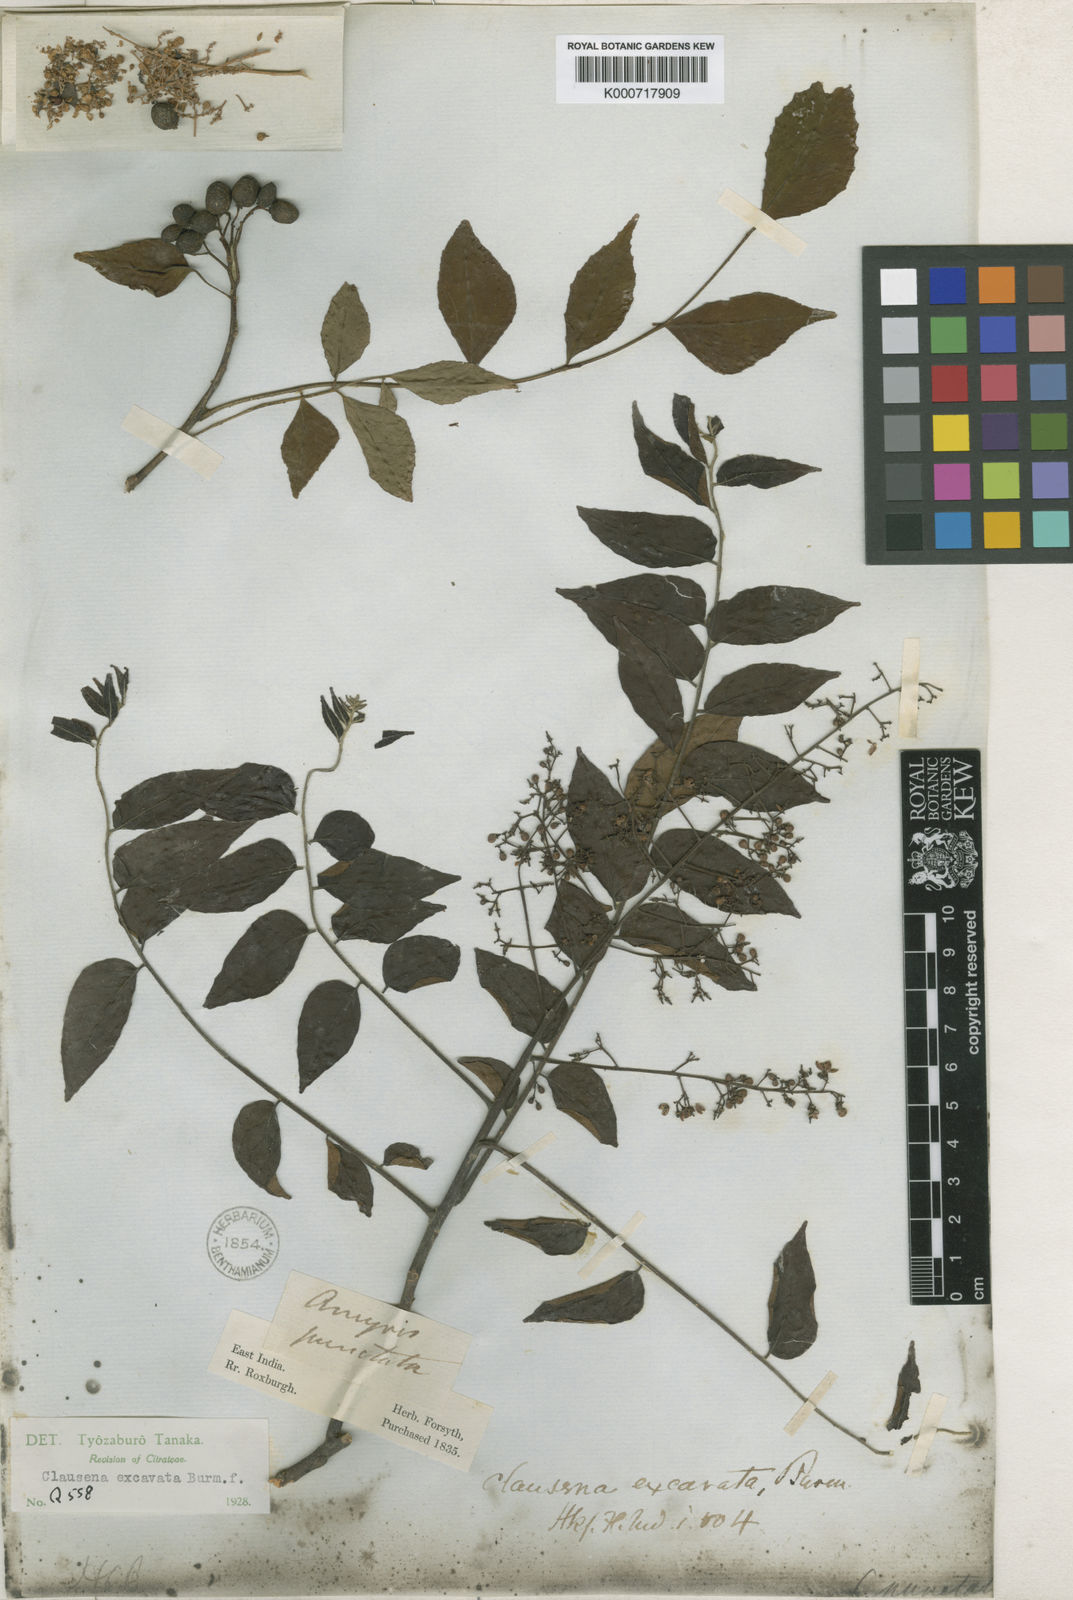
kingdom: Plantae
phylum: Tracheophyta
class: Magnoliopsida
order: Sapindales
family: Rutaceae
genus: Clausena
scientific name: Clausena excavata
